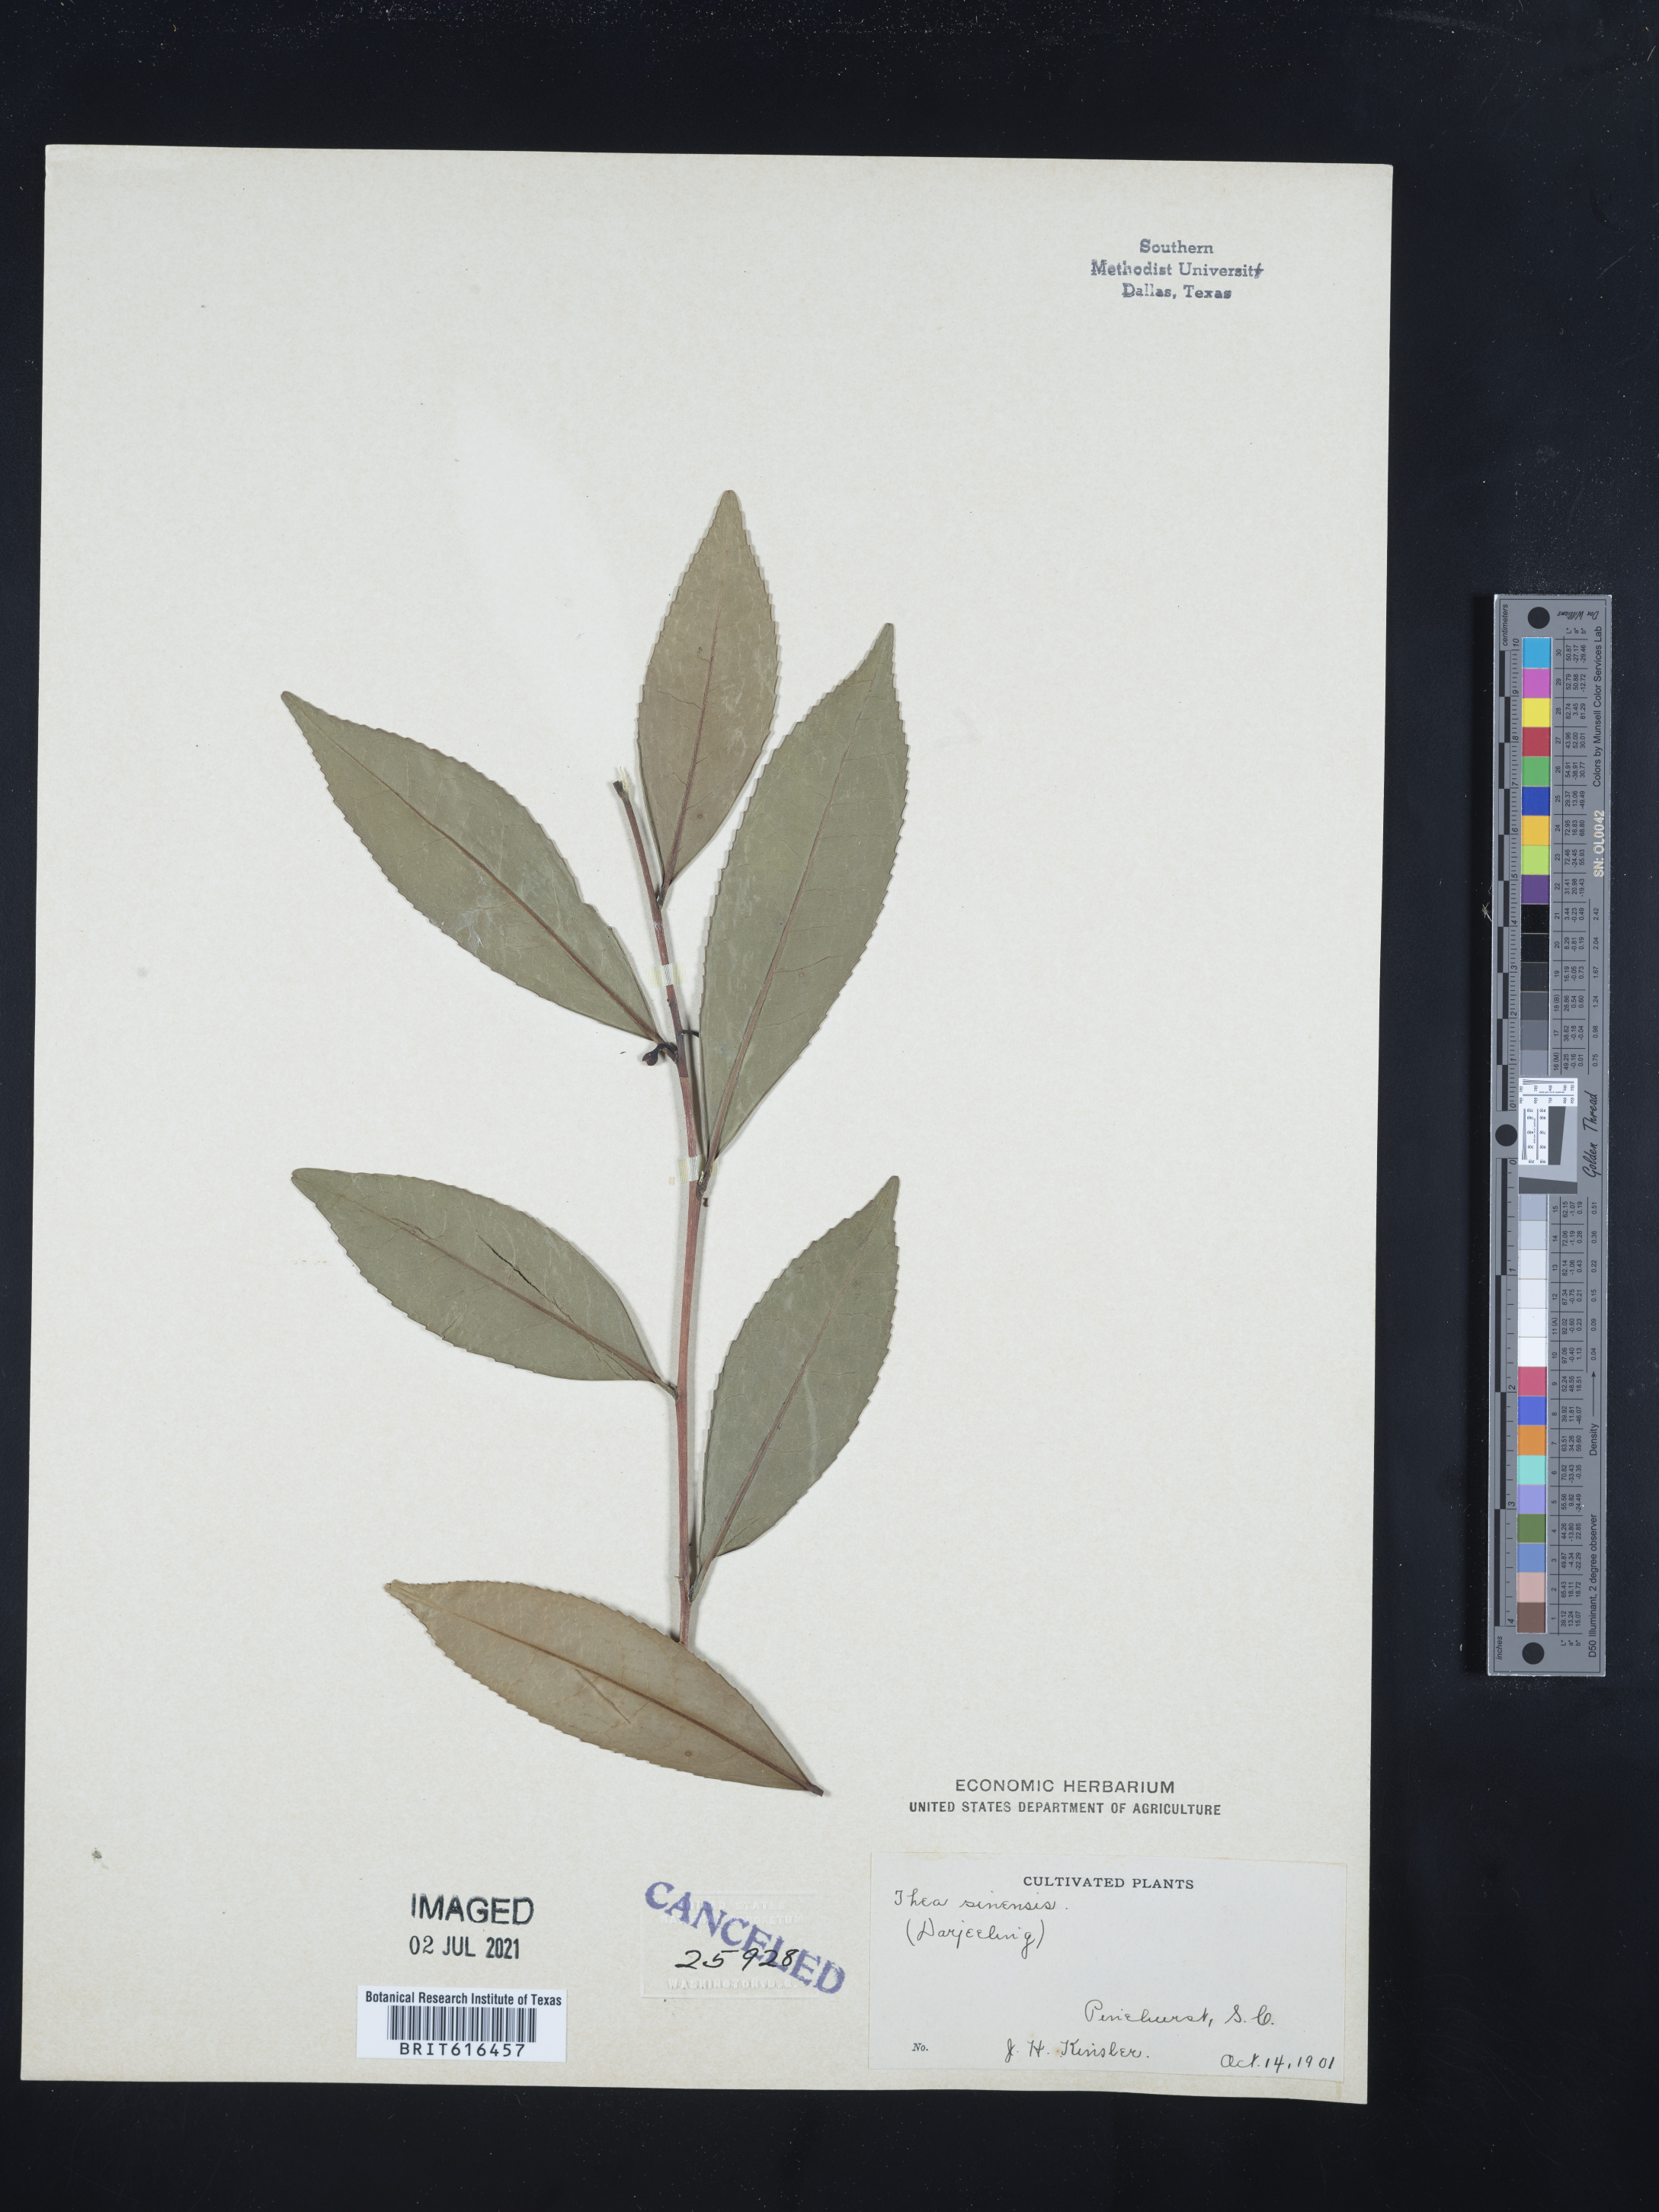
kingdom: Plantae
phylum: Tracheophyta
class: Magnoliopsida
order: Ericales
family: Theaceae
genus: Camellia
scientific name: Camellia sinensis
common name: Tea
